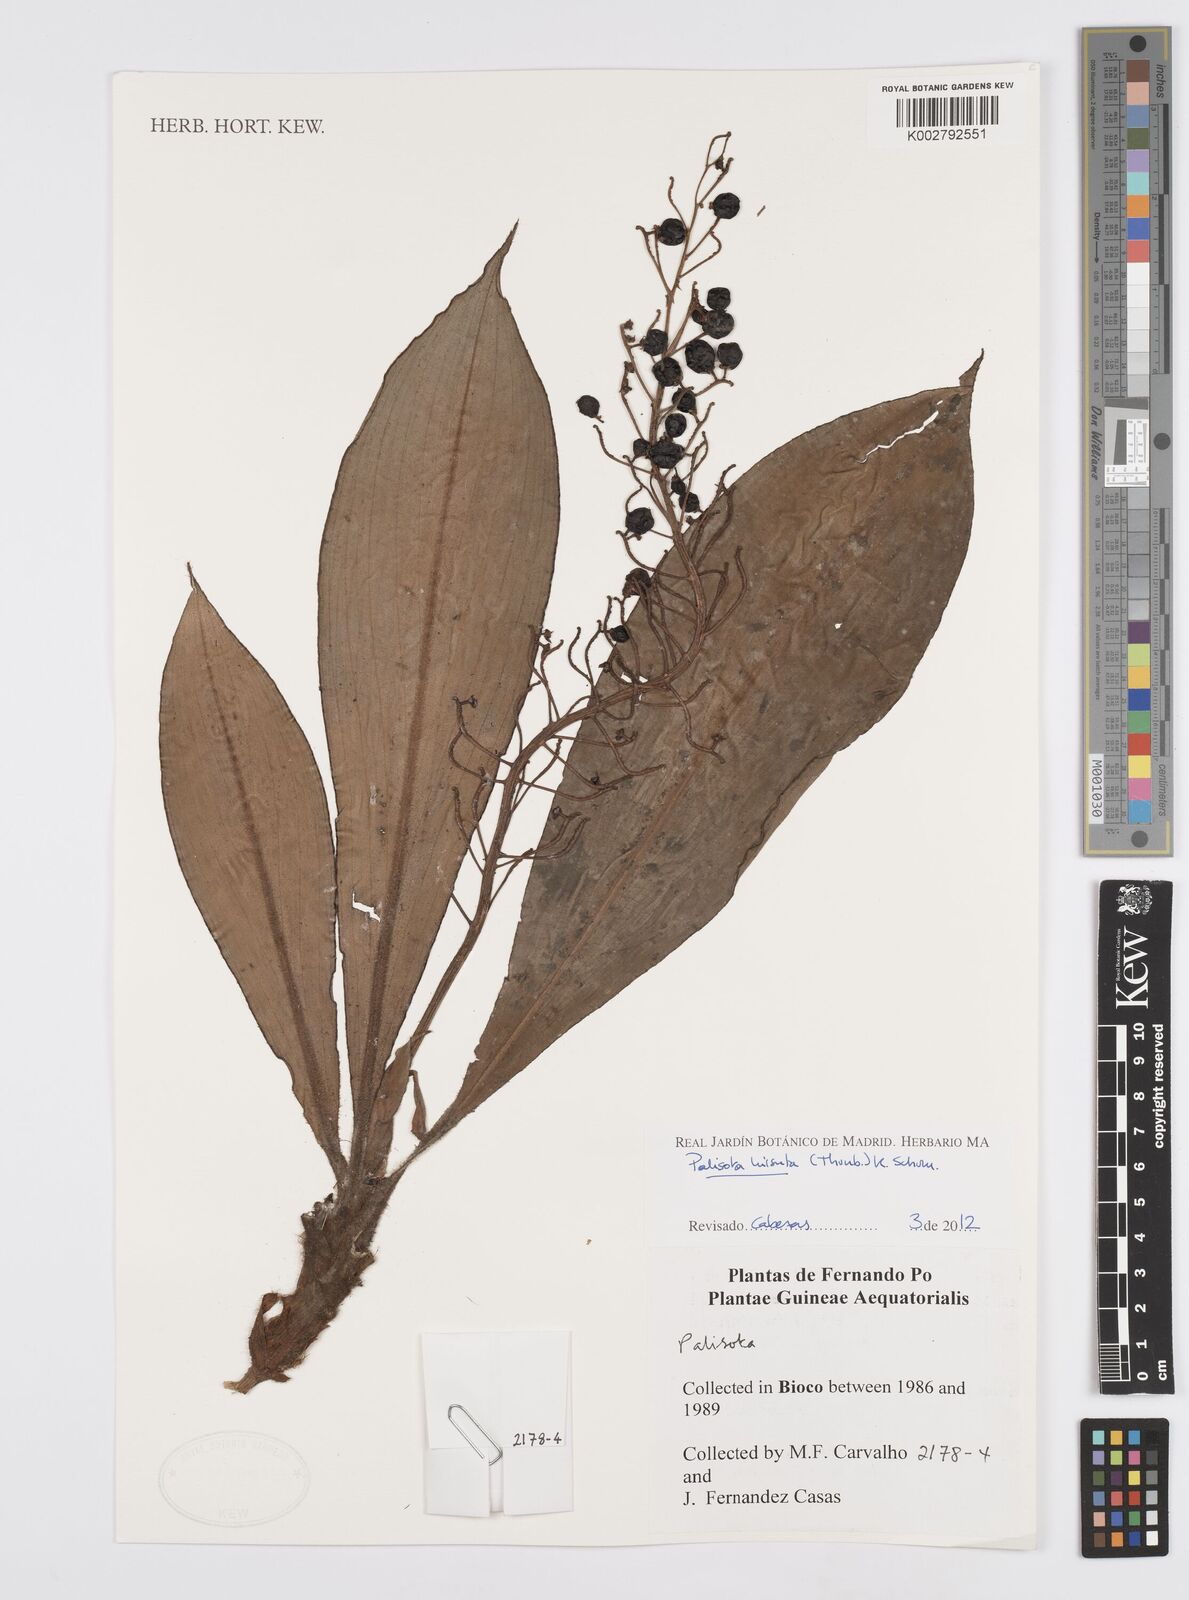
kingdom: Plantae
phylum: Tracheophyta
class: Liliopsida
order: Commelinales
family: Commelinaceae
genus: Palisota
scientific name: Palisota hirsuta
